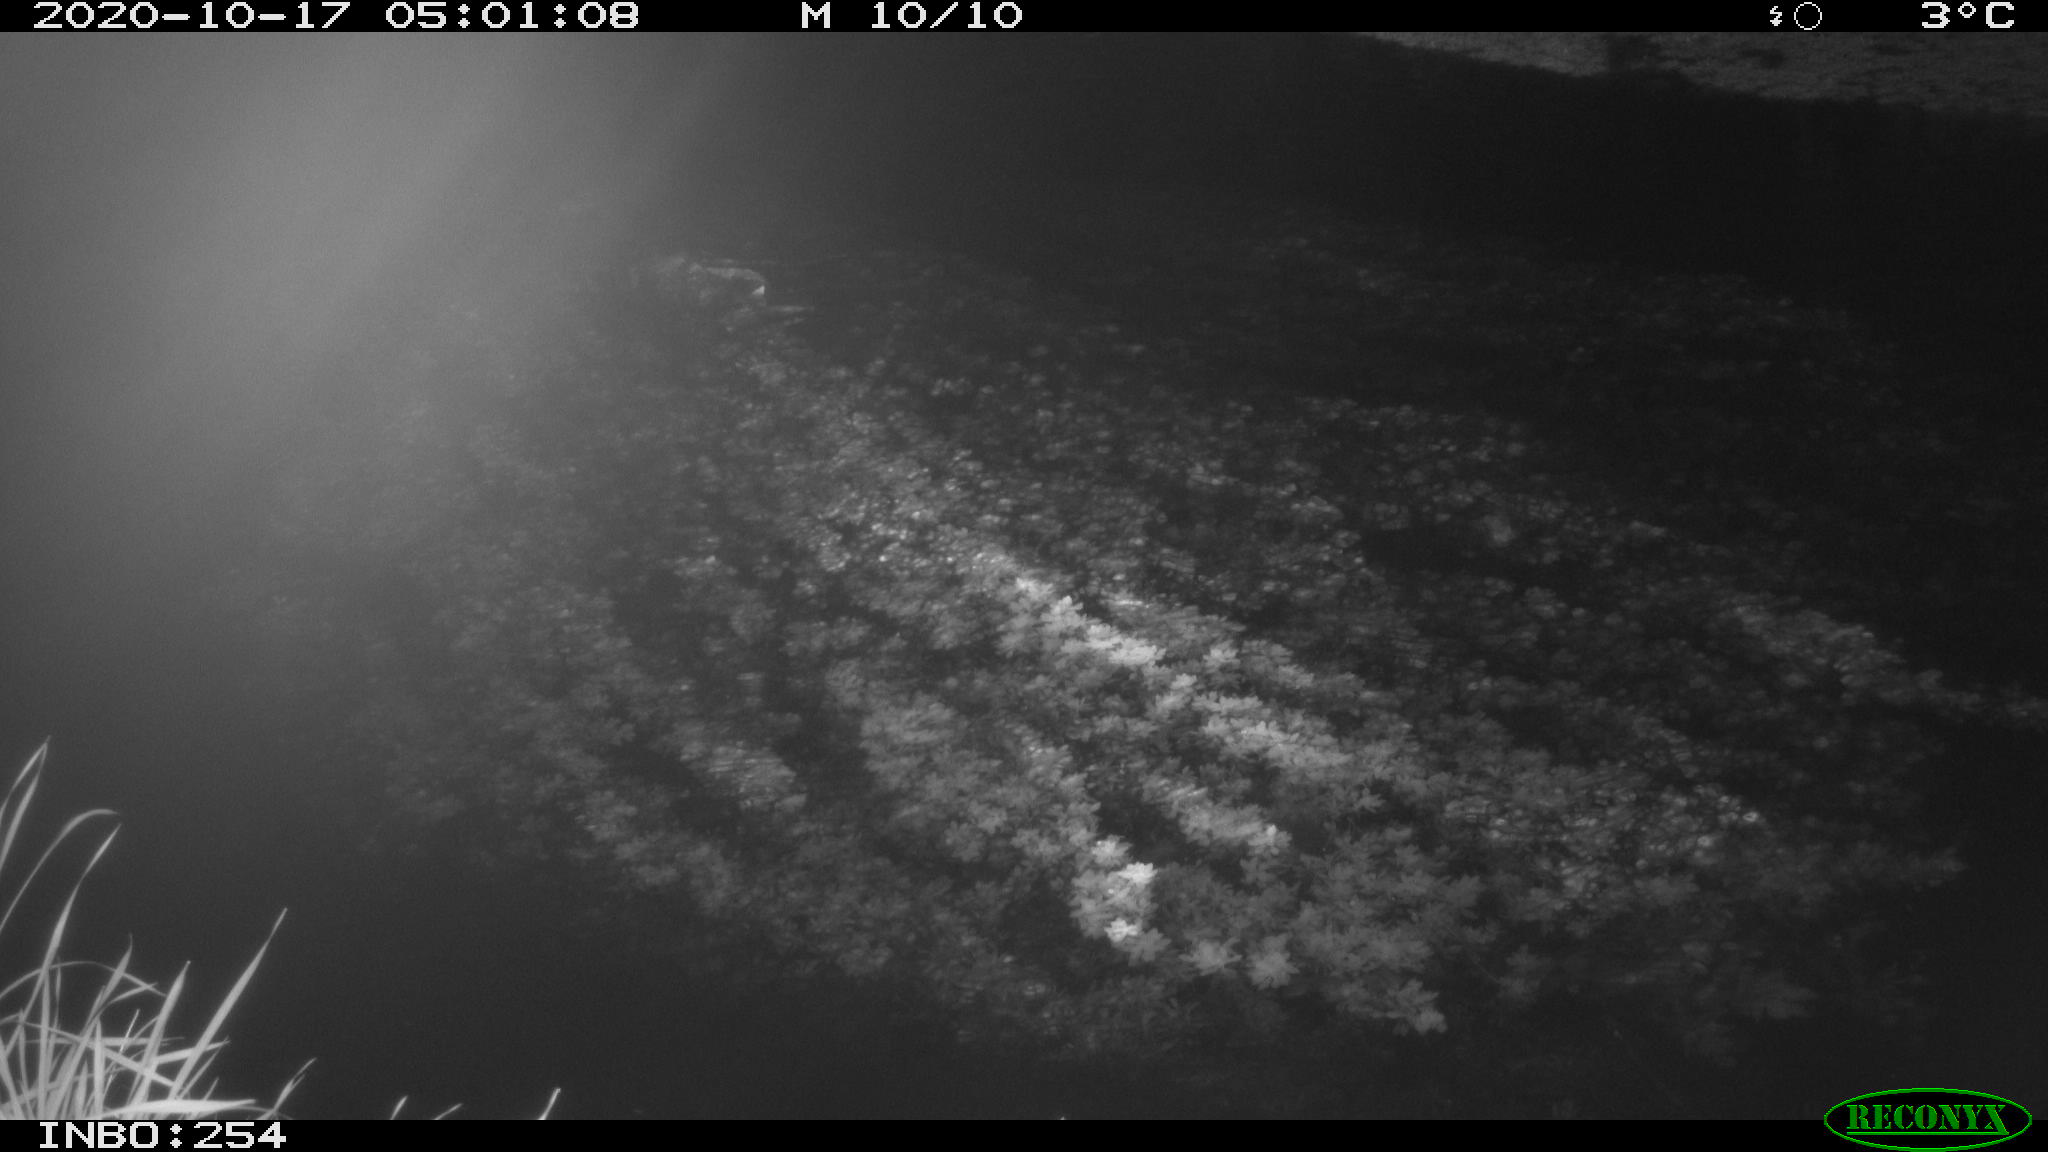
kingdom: Animalia
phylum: Chordata
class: Mammalia
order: Rodentia
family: Muridae
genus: Rattus
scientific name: Rattus norvegicus
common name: Brown rat
